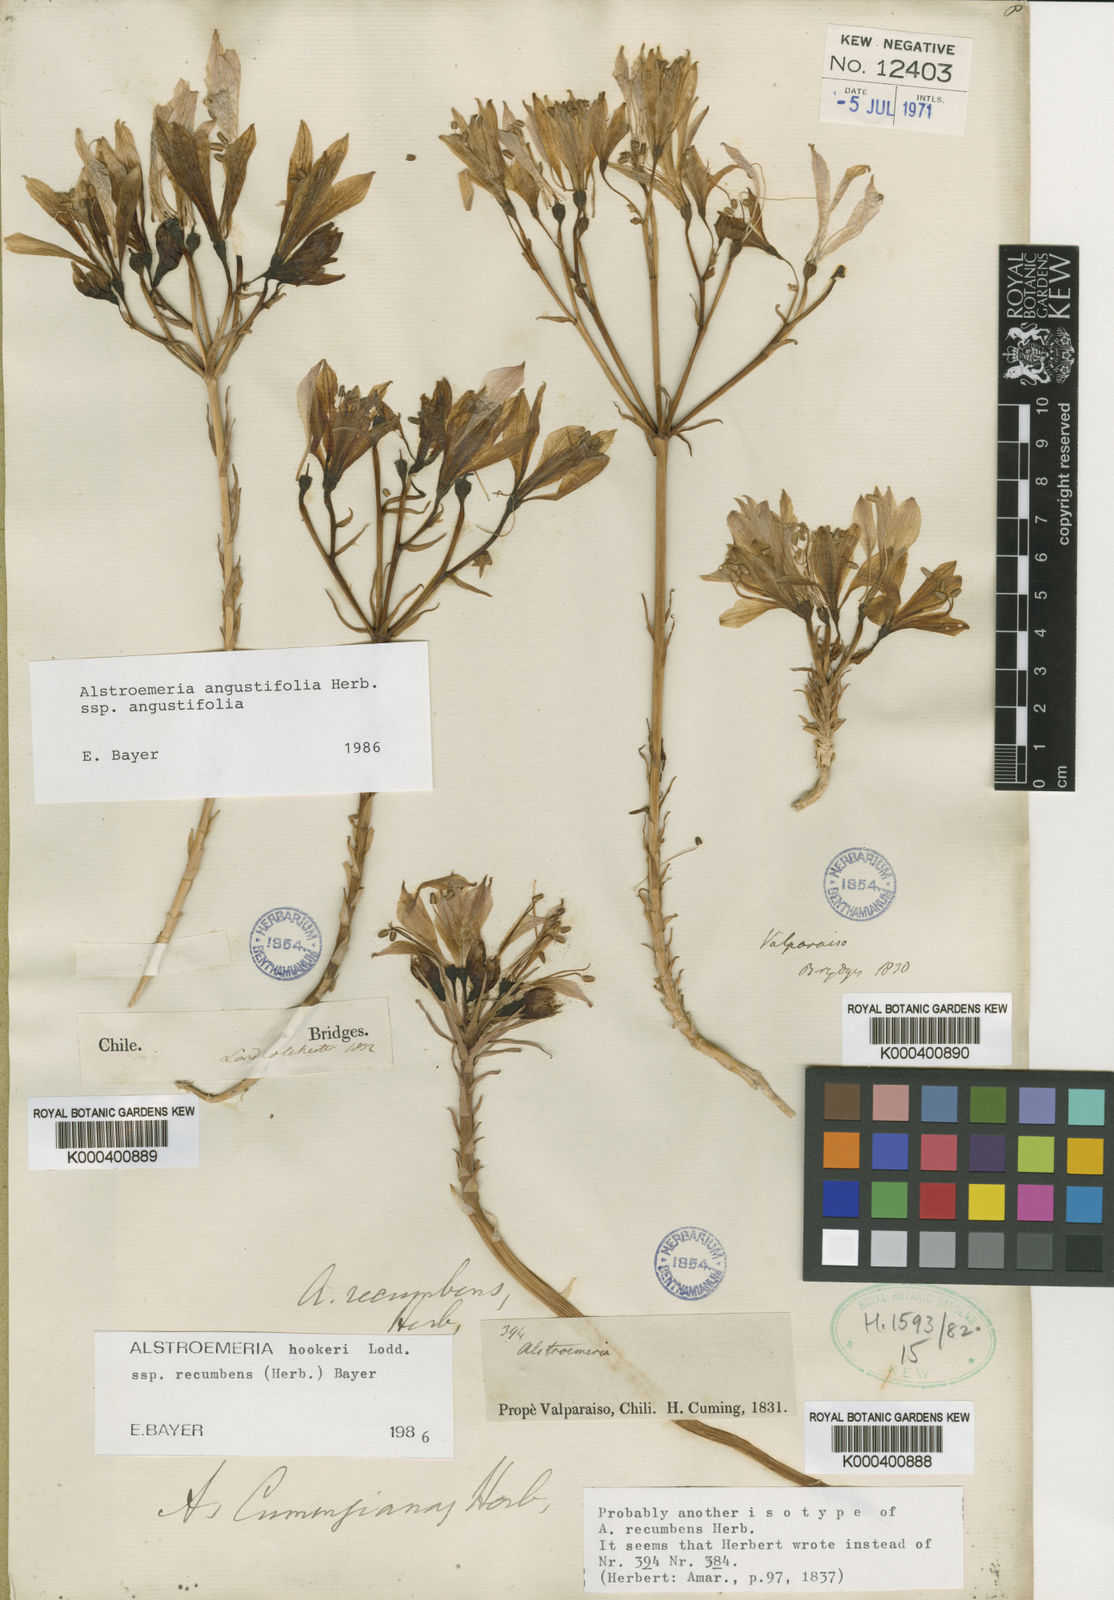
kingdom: Plantae
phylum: Tracheophyta
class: Liliopsida
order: Liliales
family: Alstroemeriaceae
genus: Alstroemeria
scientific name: Alstroemeria recumbens
